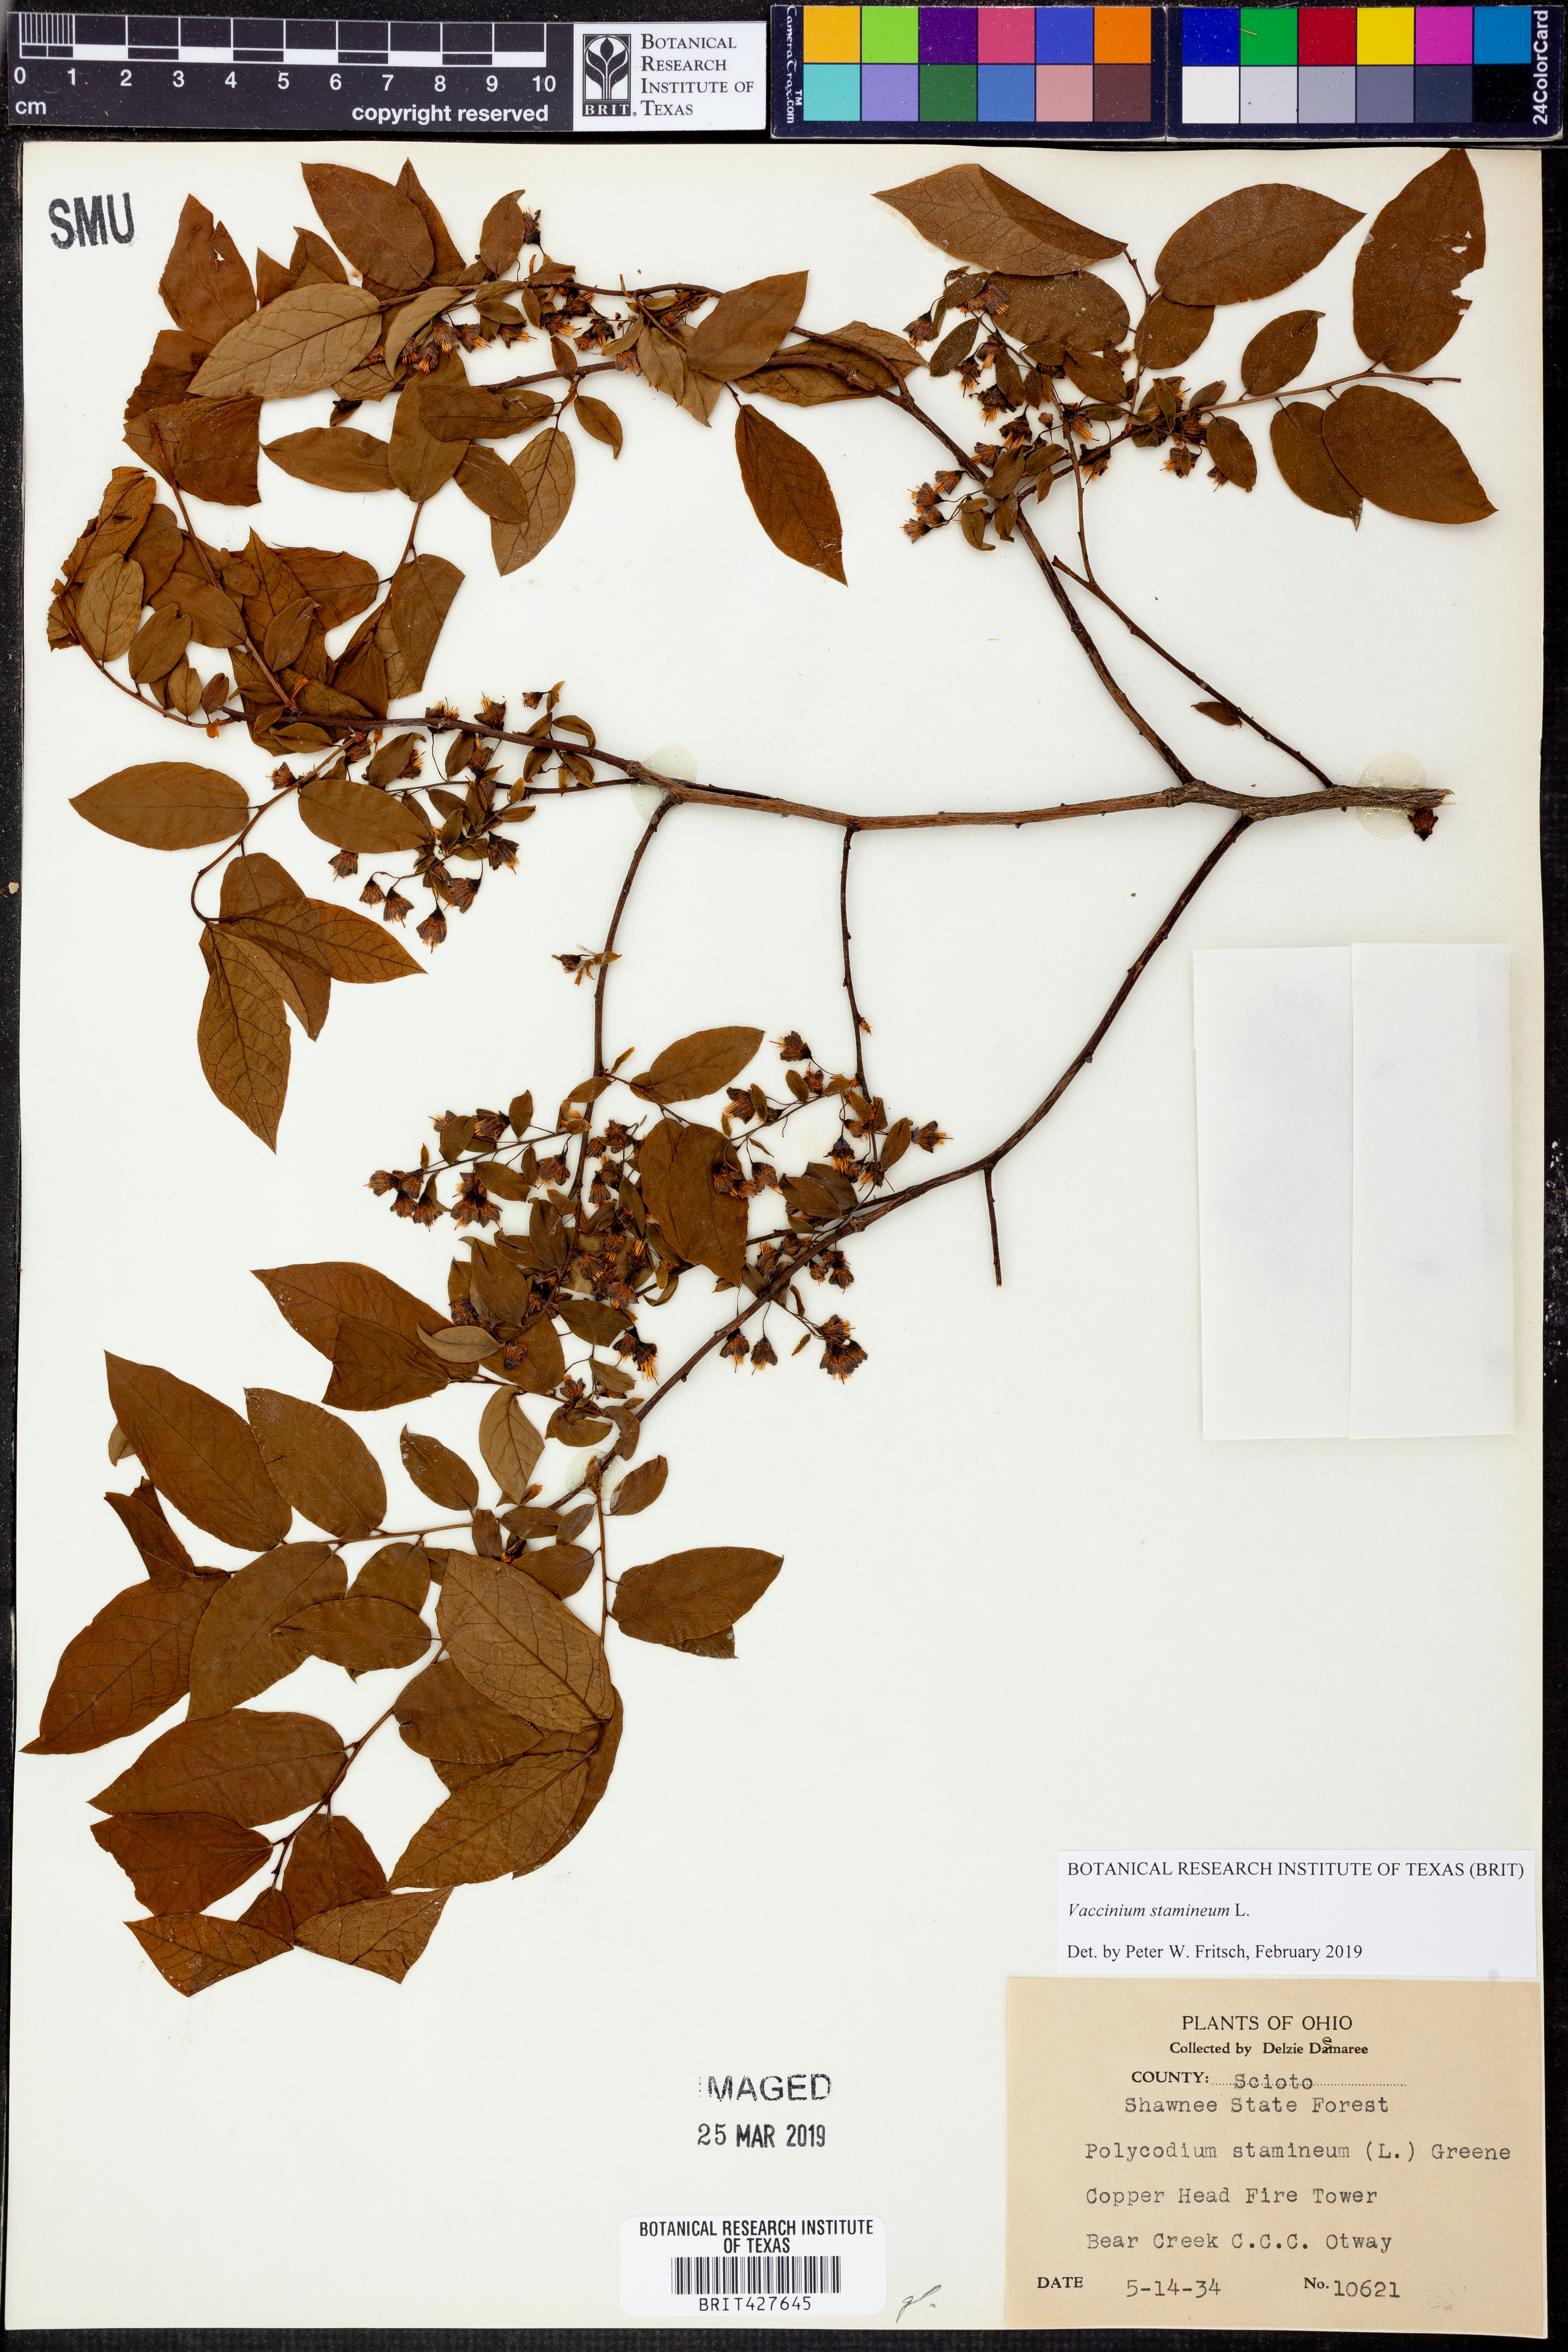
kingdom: Plantae
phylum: Tracheophyta
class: Magnoliopsida
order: Ericales
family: Ericaceae
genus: Vaccinium
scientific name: Vaccinium stamineum
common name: Deerberry
